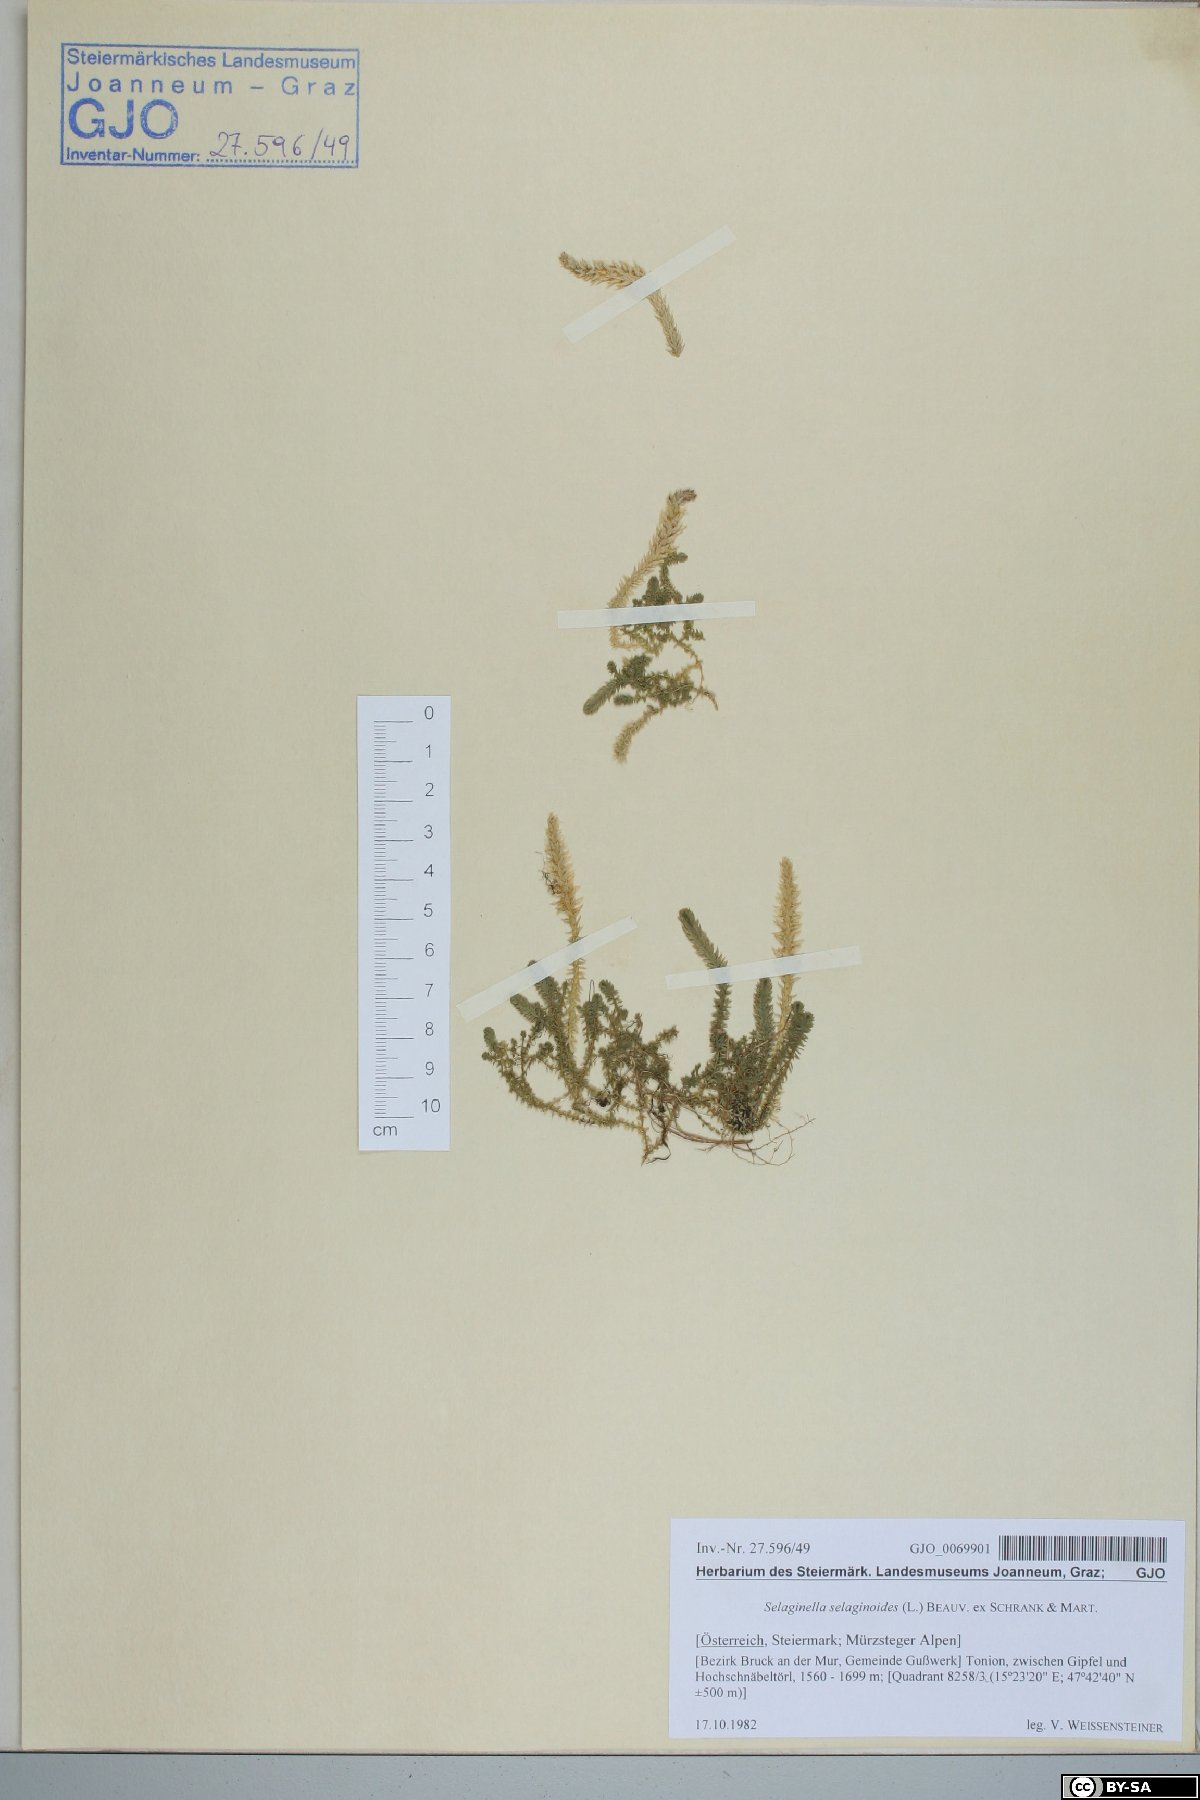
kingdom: Plantae
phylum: Tracheophyta
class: Lycopodiopsida
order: Selaginellales
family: Selaginellaceae
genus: Selaginella
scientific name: Selaginella selaginoides
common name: Prickly mountain-moss
